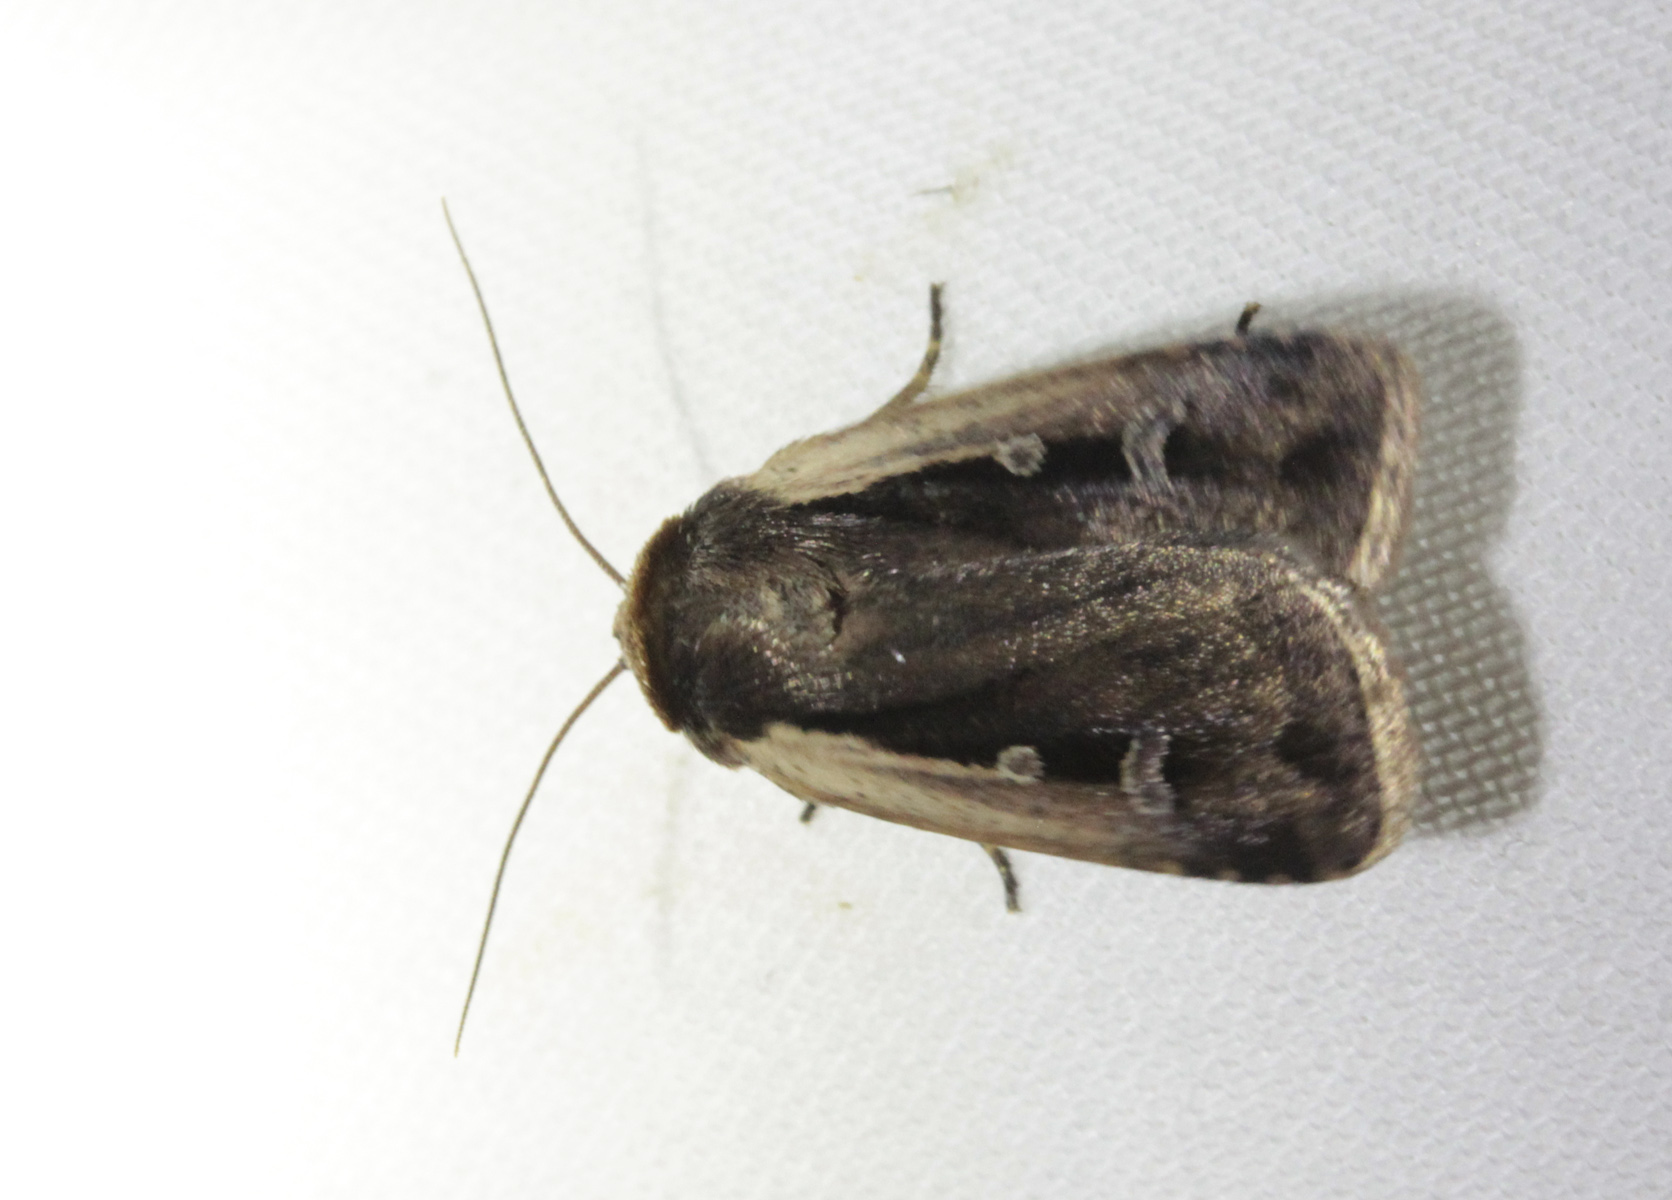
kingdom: Animalia
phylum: Arthropoda
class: Insecta
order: Lepidoptera
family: Noctuidae
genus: Ochropleura
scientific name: Ochropleura plecta
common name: Flame shoulder
